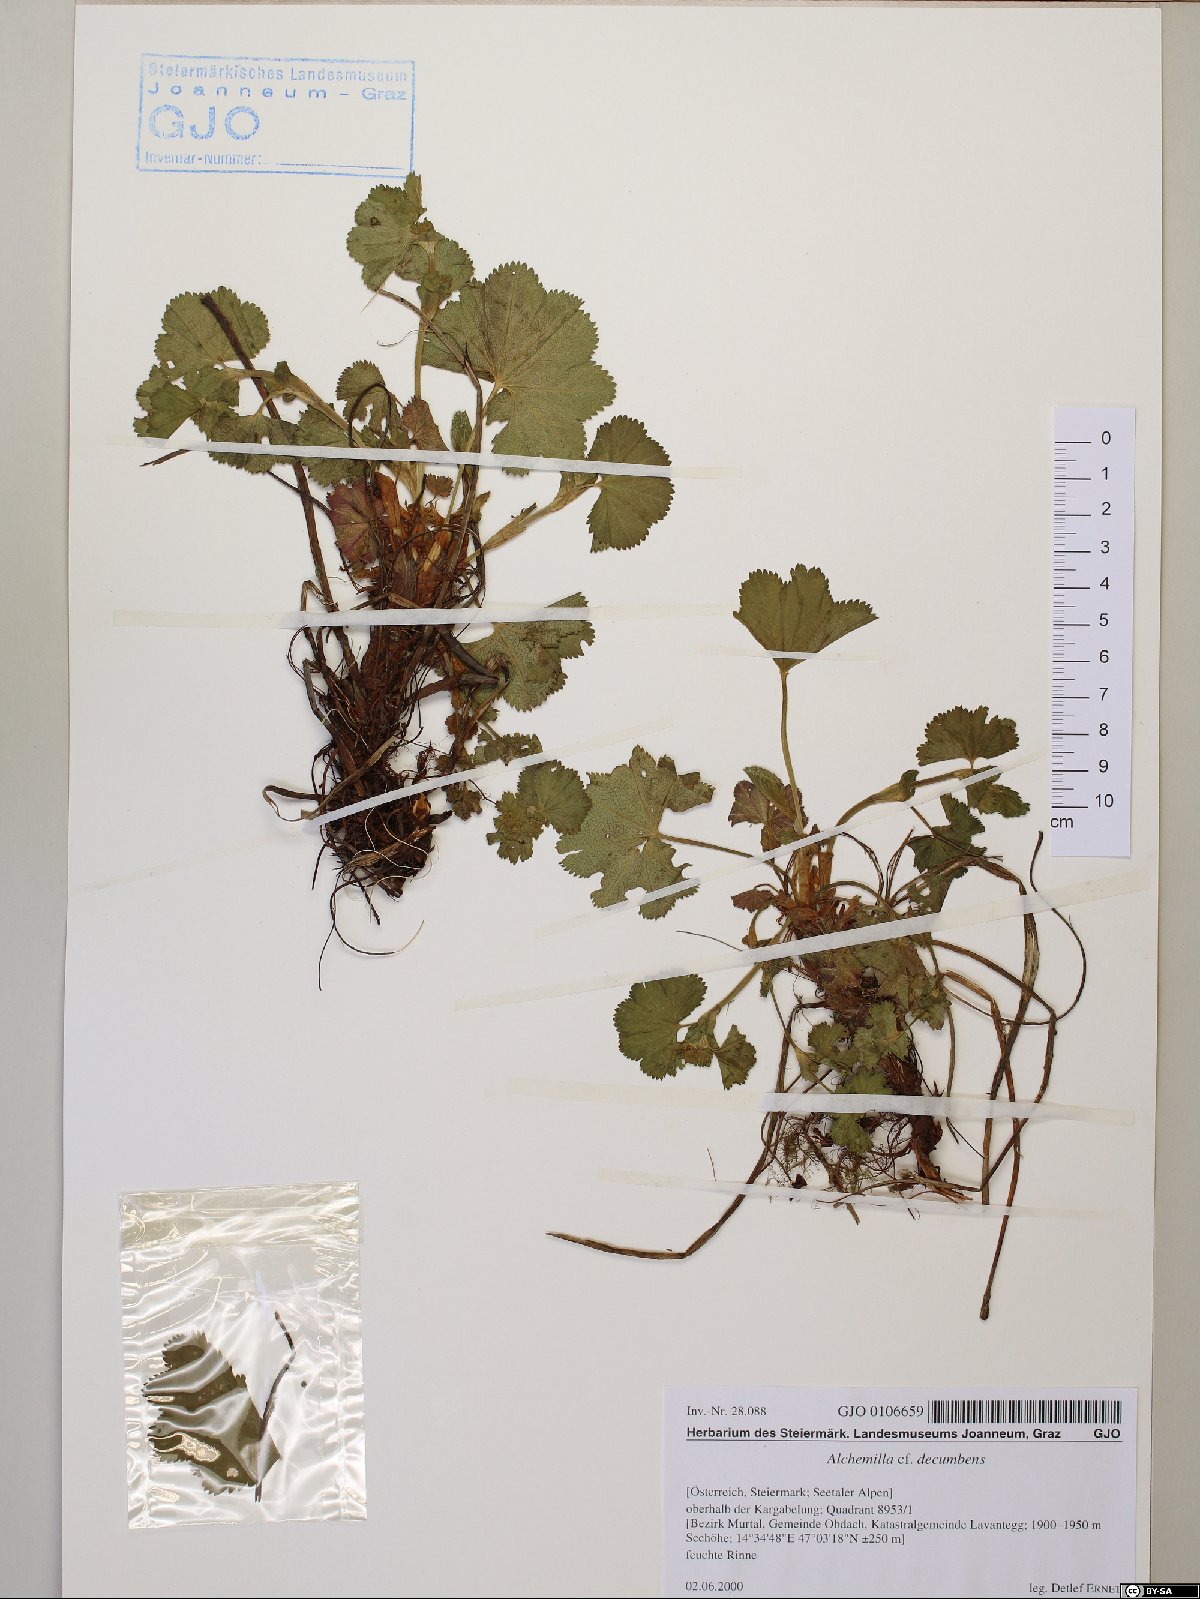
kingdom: Plantae
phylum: Tracheophyta
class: Magnoliopsida
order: Rosales
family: Rosaceae
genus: Alchemilla
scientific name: Alchemilla decumbens
